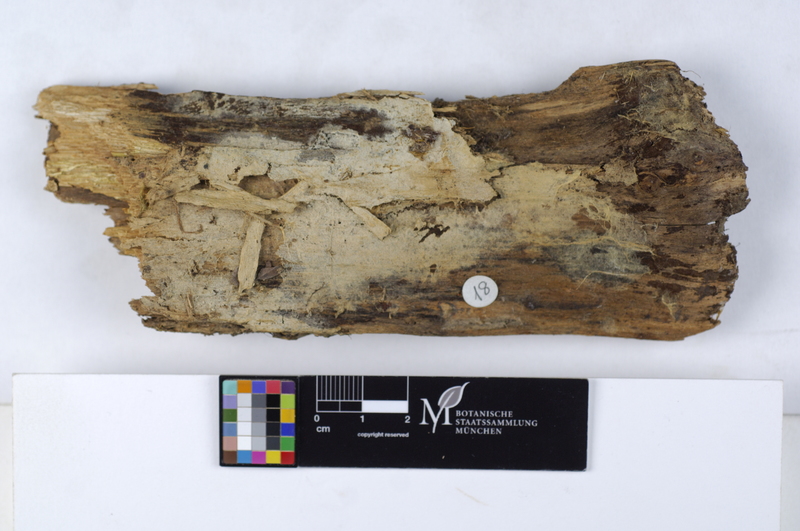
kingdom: Plantae
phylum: Tracheophyta
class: Pinopsida
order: Pinales
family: Pinaceae
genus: Picea
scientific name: Picea
